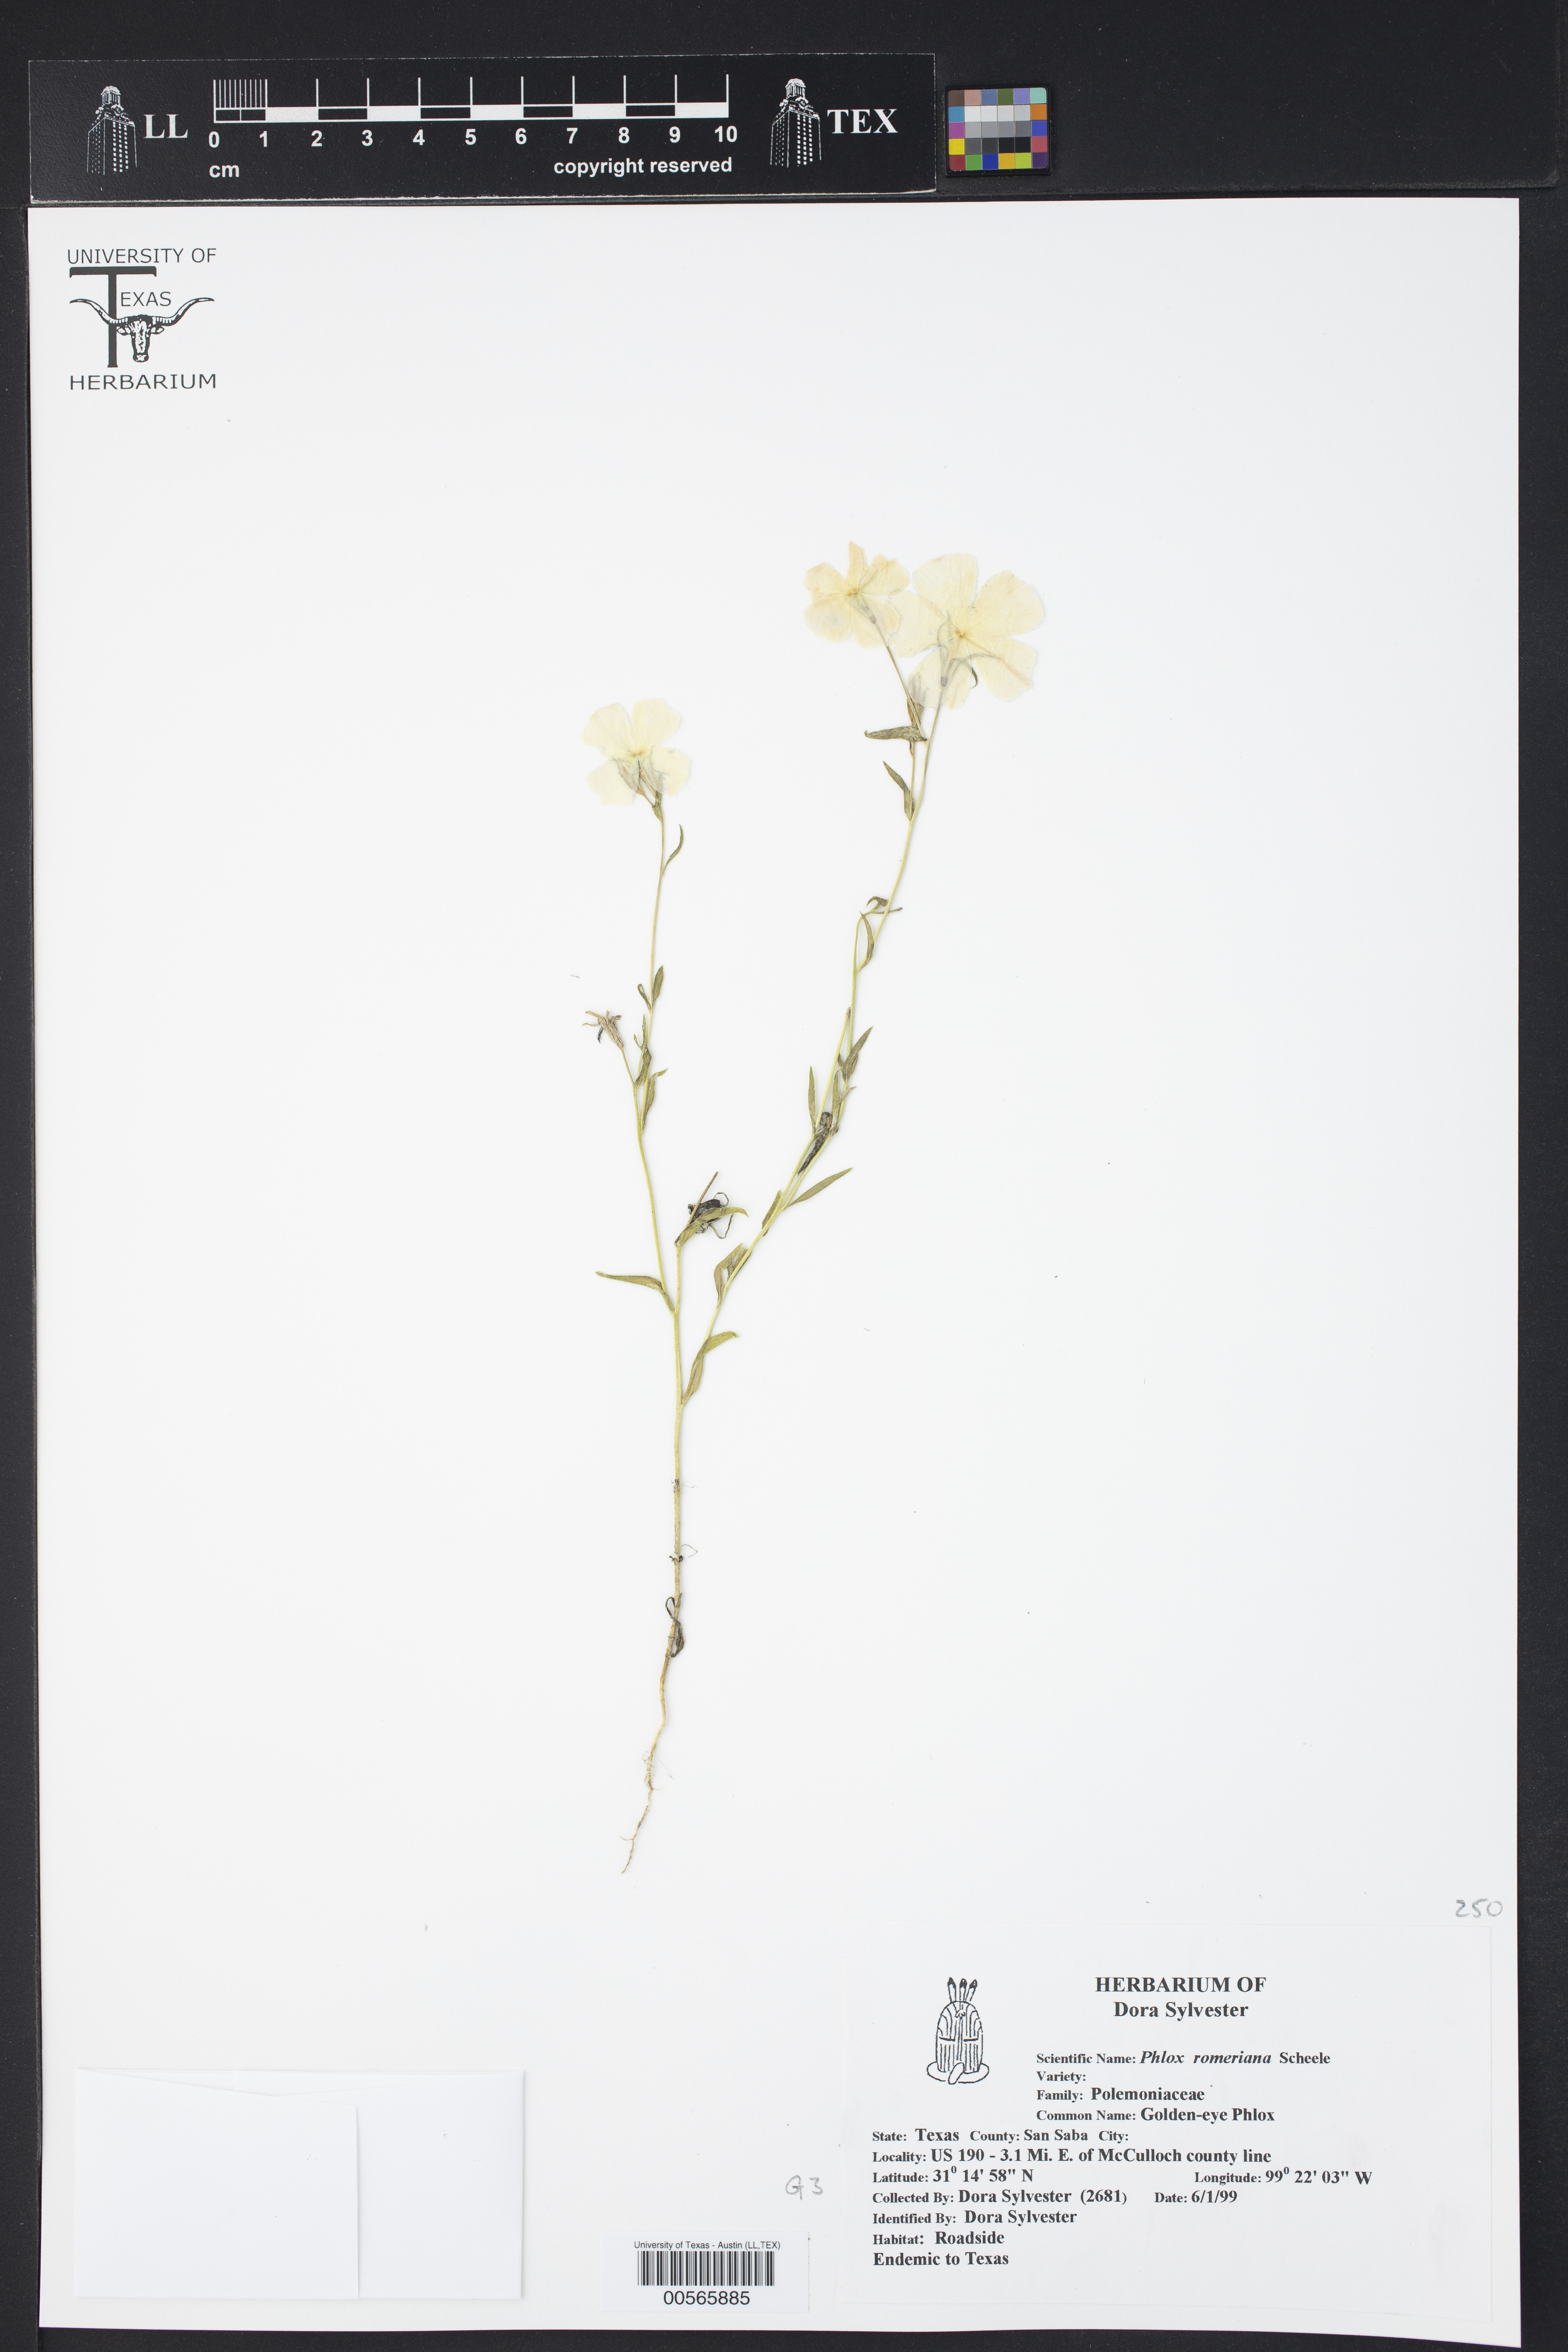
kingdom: Plantae
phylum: Tracheophyta
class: Magnoliopsida
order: Ericales
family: Polemoniaceae
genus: Phlox
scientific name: Phlox roemeriana
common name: Roemer's phlox
